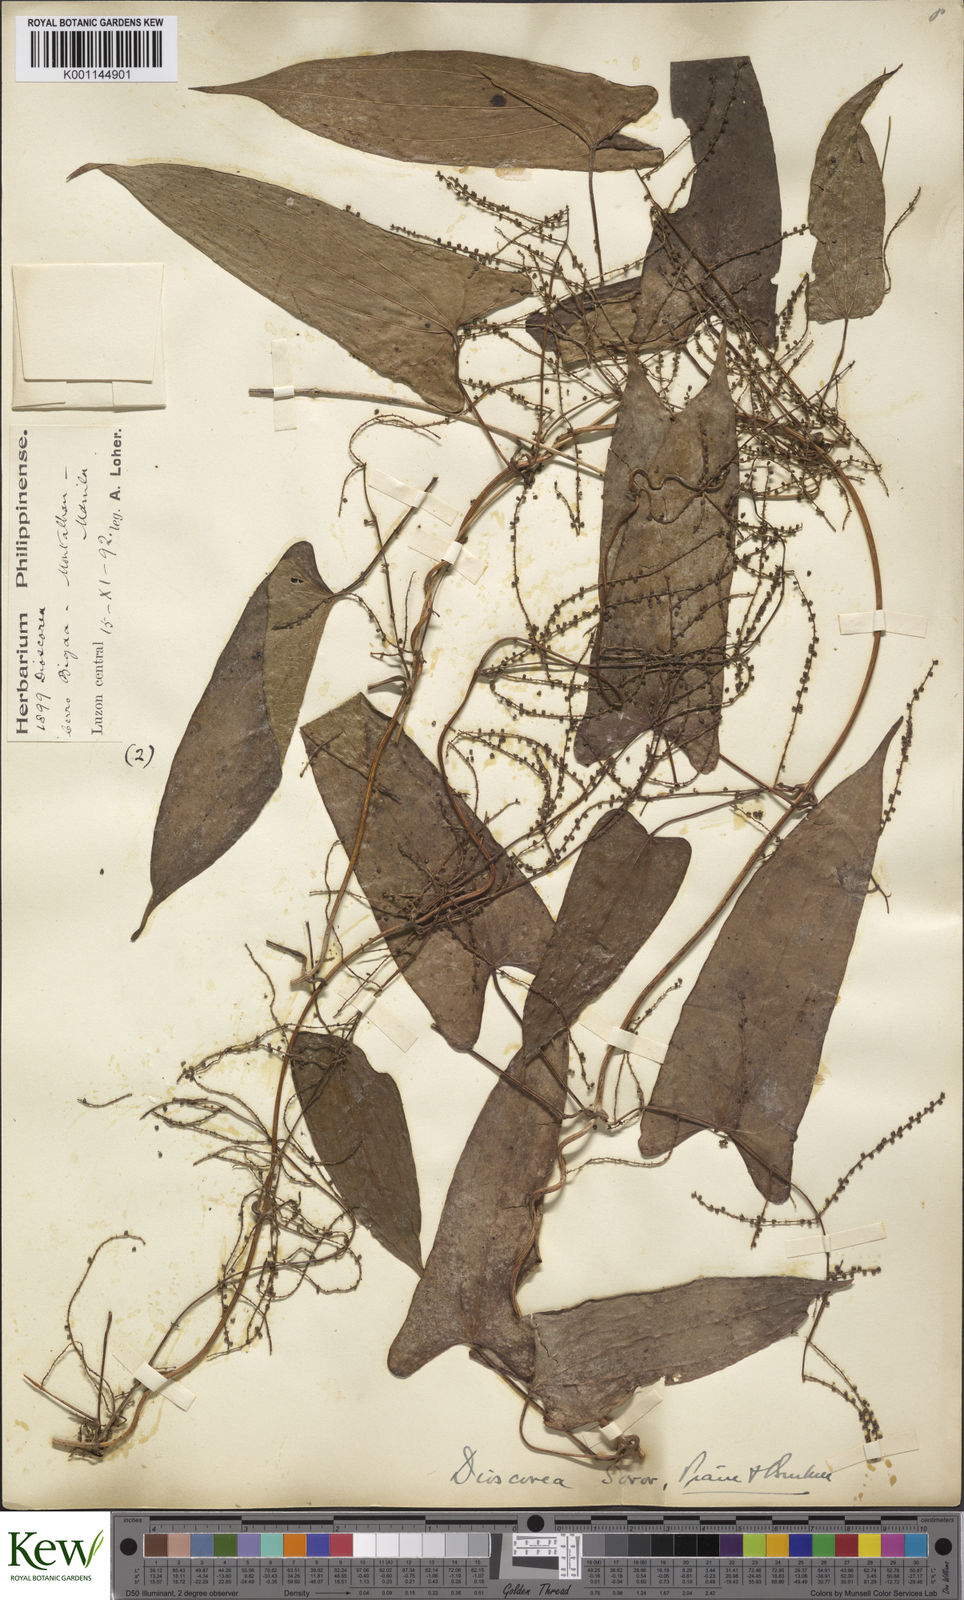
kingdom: Plantae
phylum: Tracheophyta
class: Liliopsida
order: Dioscoreales
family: Dioscoreaceae
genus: Dioscorea
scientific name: Dioscorea divaricata
